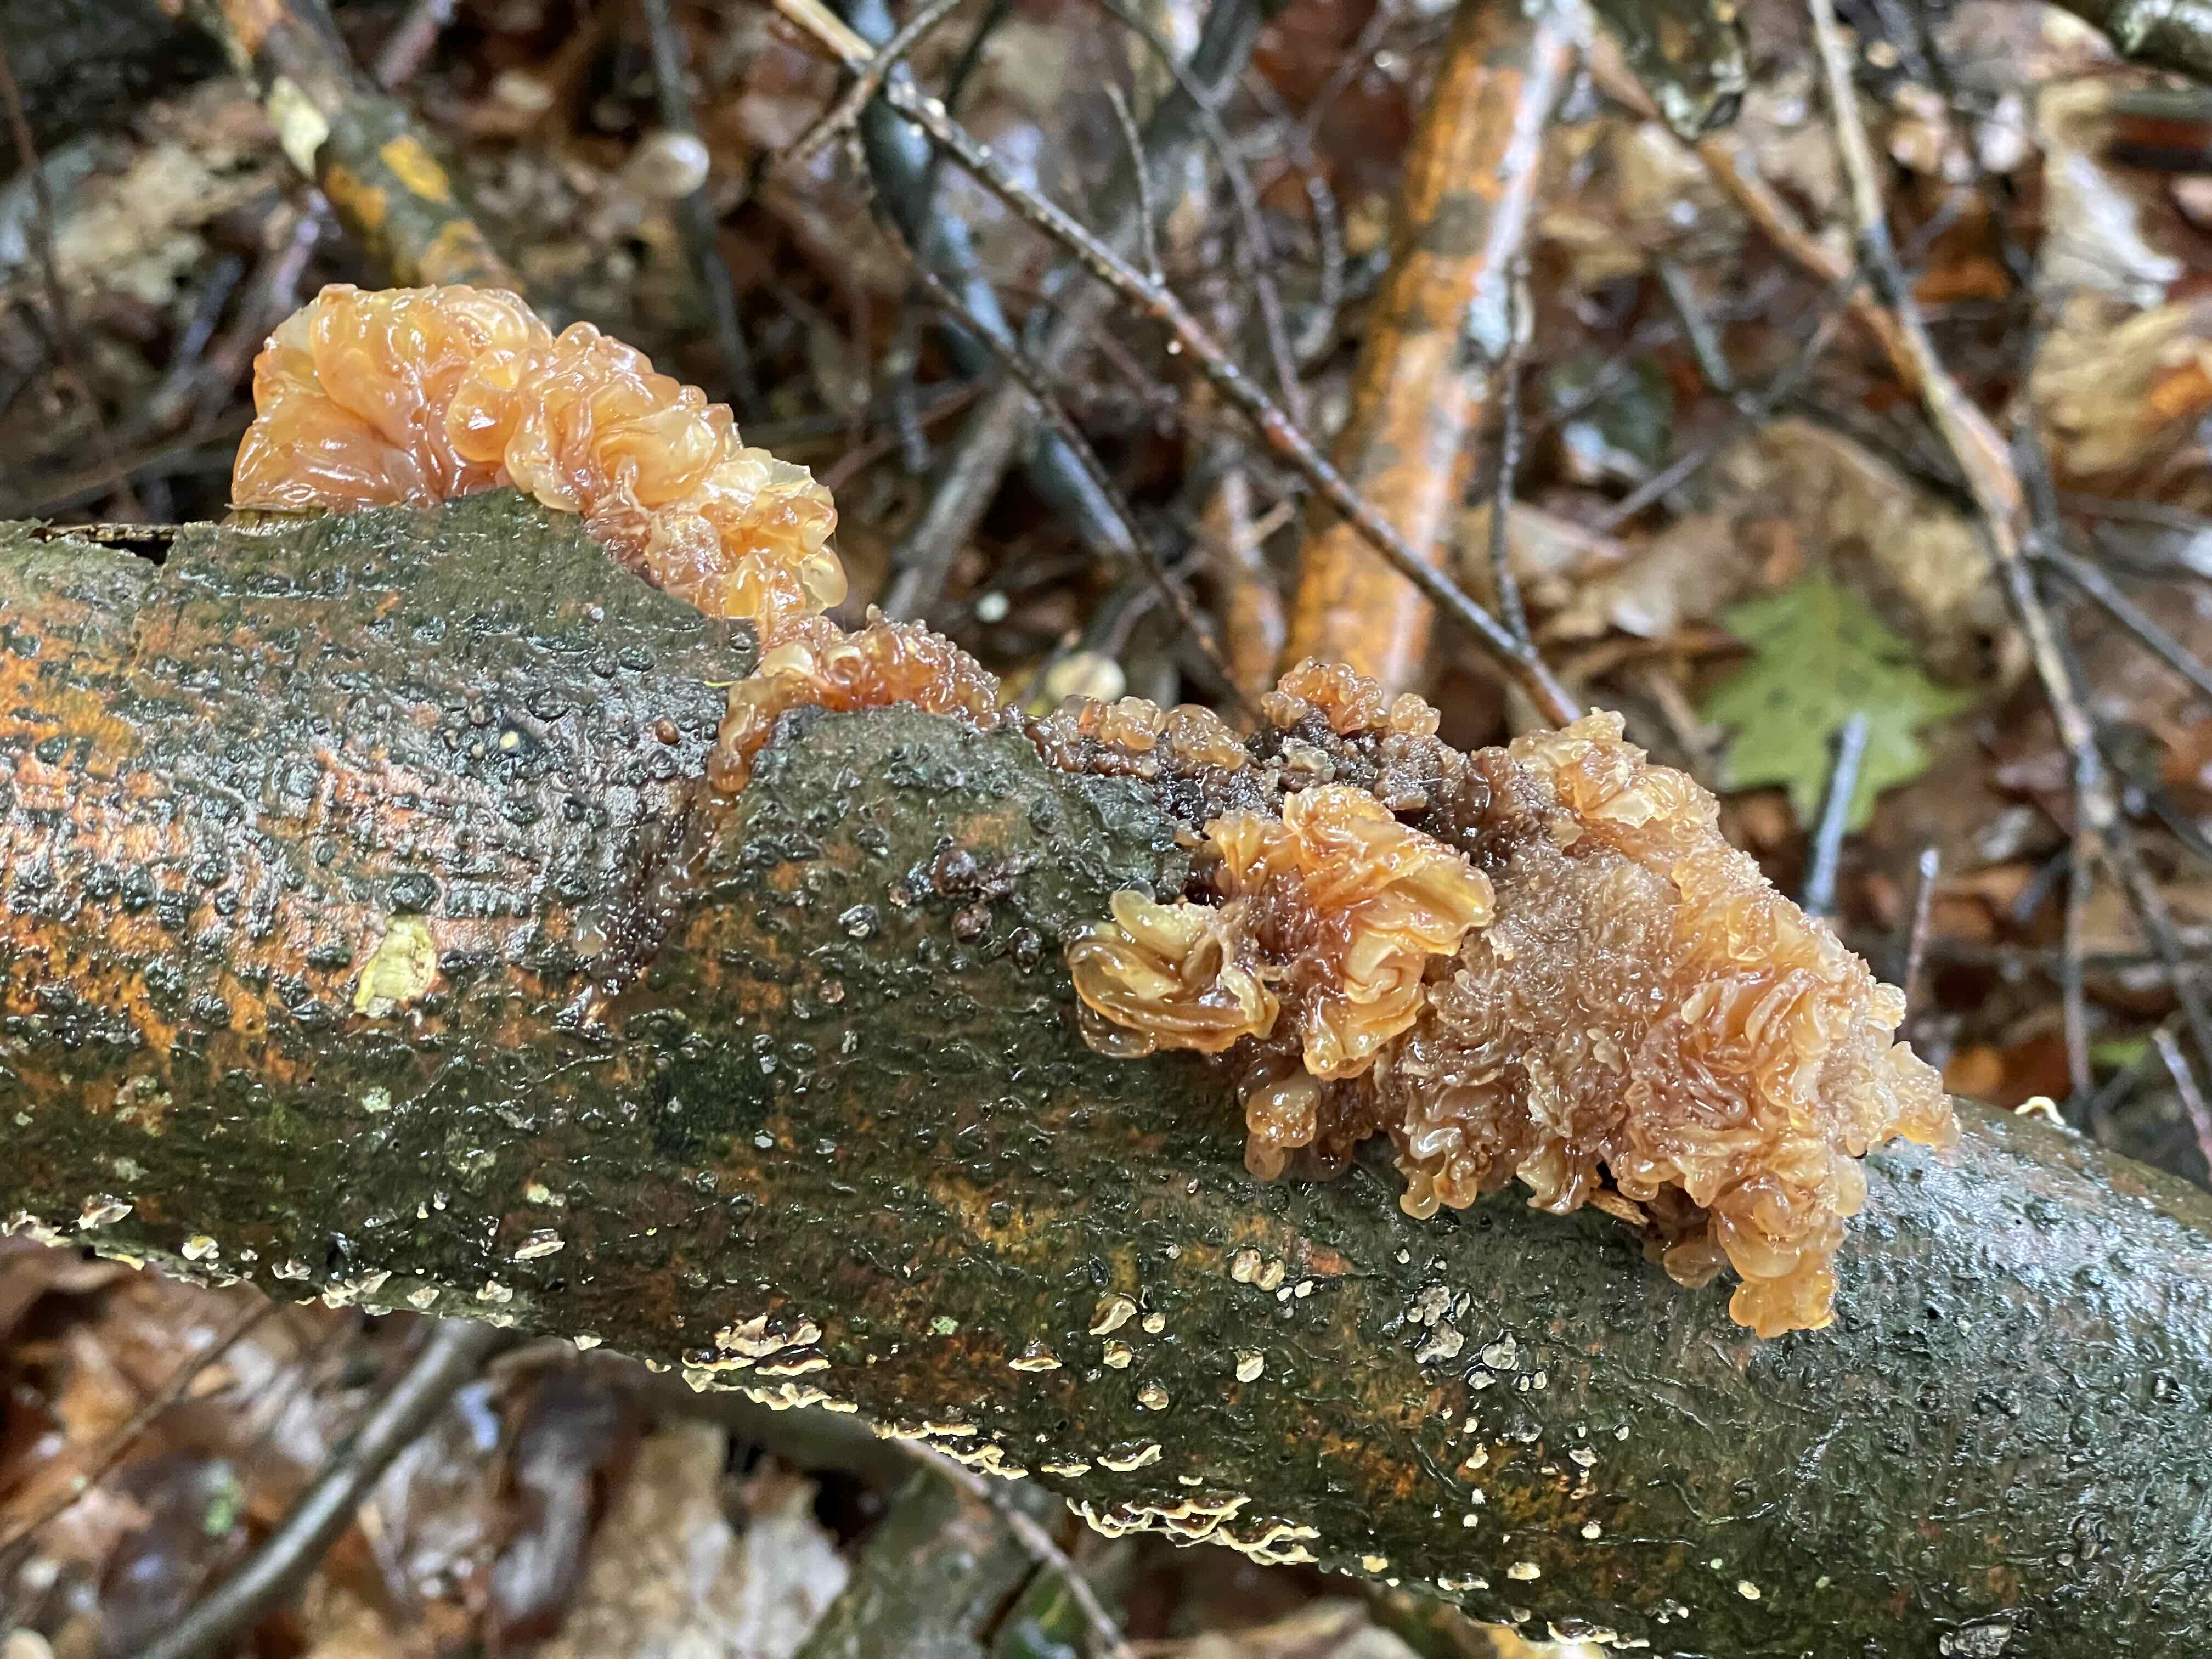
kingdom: Fungi
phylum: Basidiomycota
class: Tremellomycetes
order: Tremellales
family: Tremellaceae
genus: Phaeotremella
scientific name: Phaeotremella frondosa
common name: kæmpe-bævresvamp
